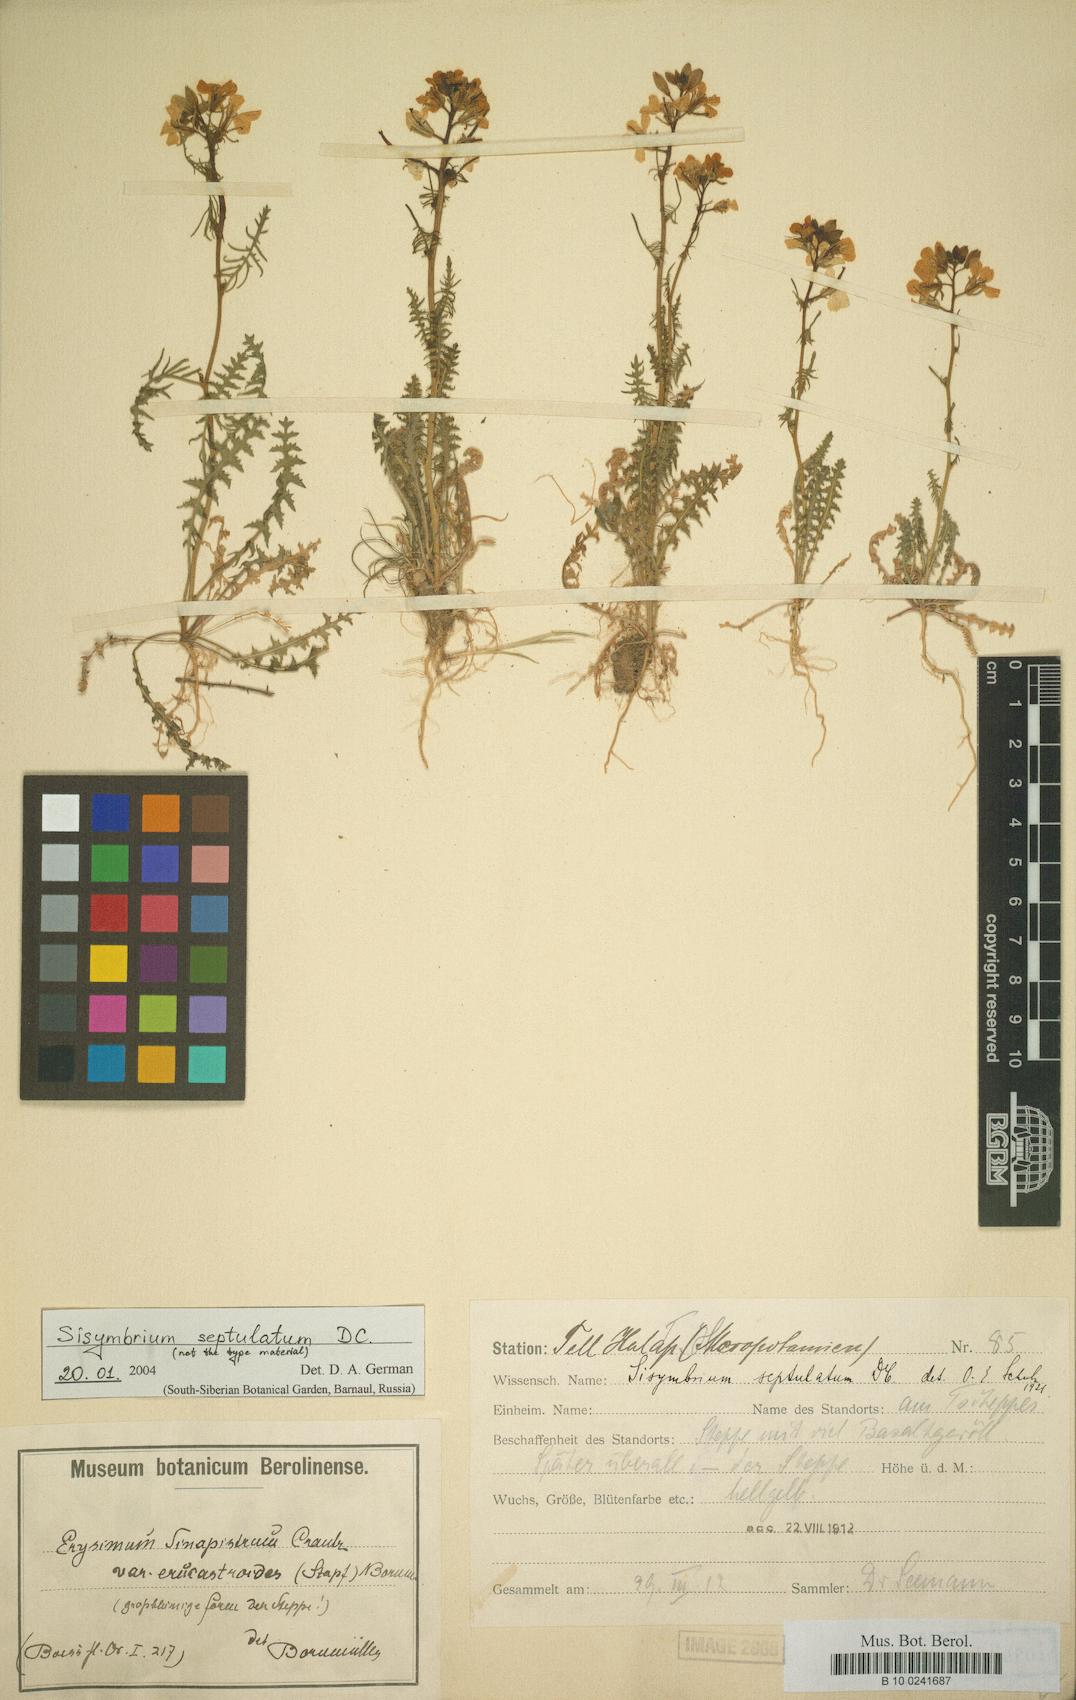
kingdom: Plantae
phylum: Tracheophyta
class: Magnoliopsida
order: Brassicales
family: Brassicaceae
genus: Sisymbrium
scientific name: Sisymbrium altissimum
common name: Tall rocket
